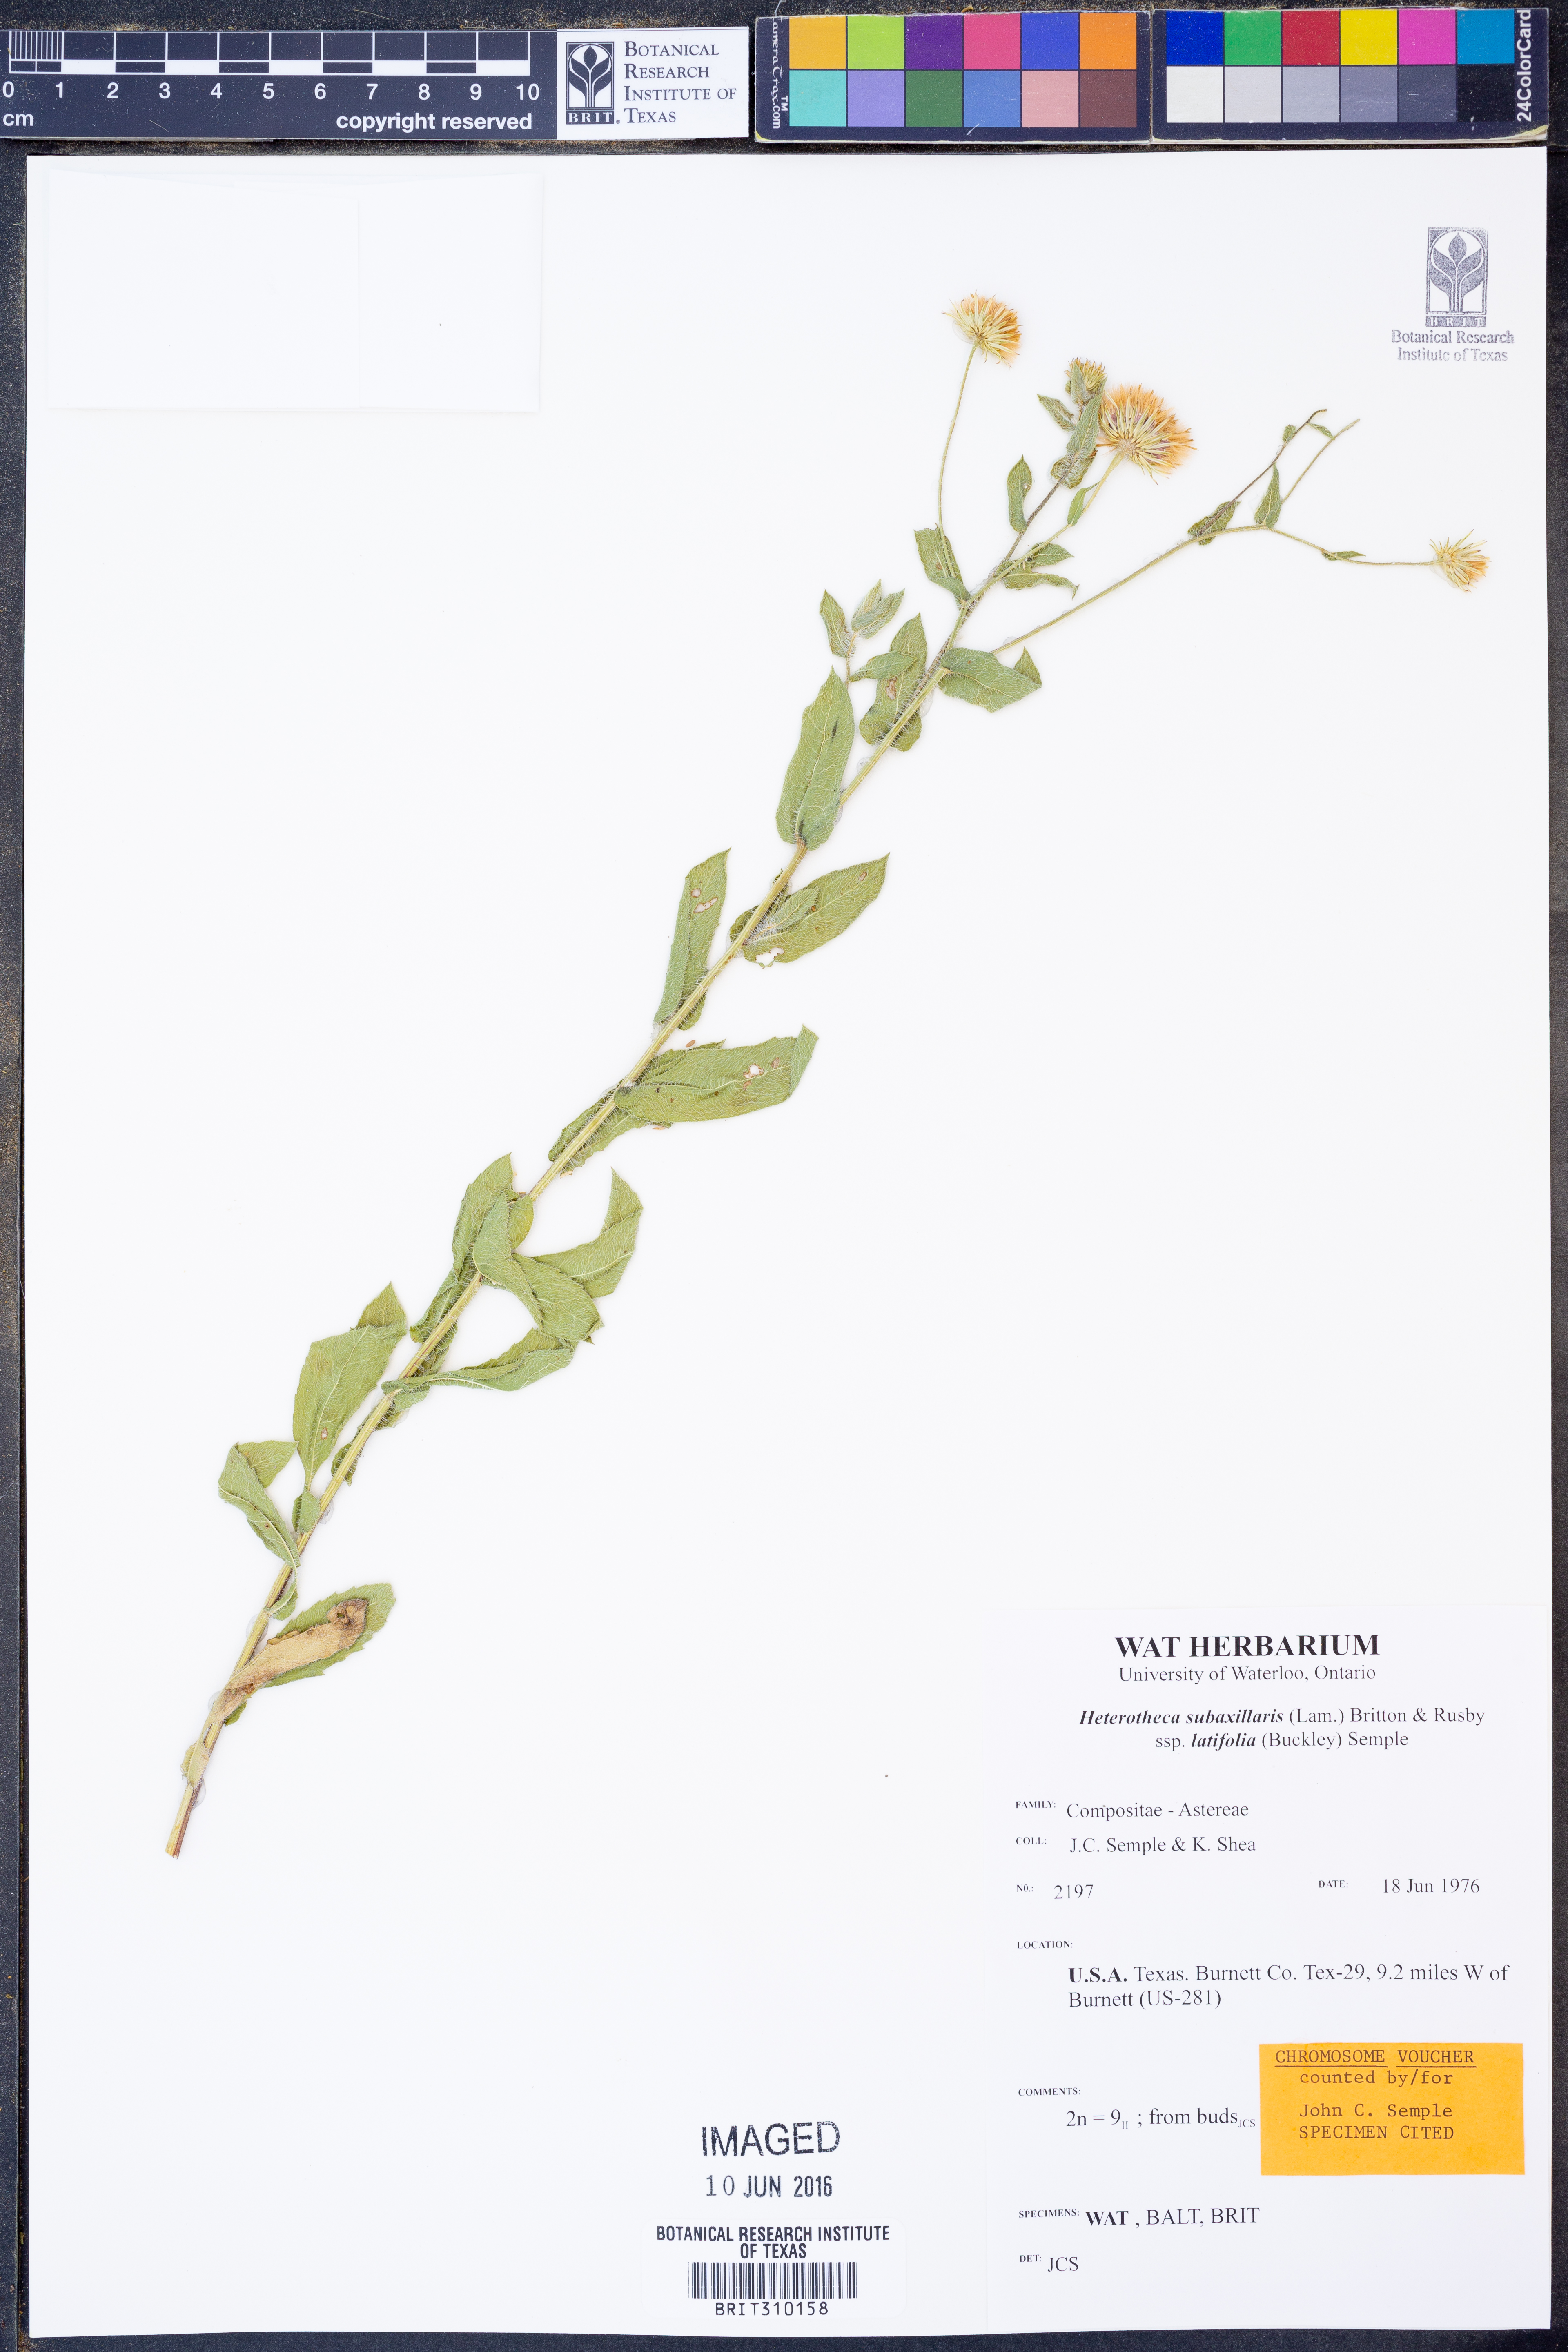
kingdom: Plantae
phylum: Tracheophyta
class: Magnoliopsida
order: Asterales
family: Asteraceae
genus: Heterotheca
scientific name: Heterotheca subaxillaris
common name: Camphorweed
